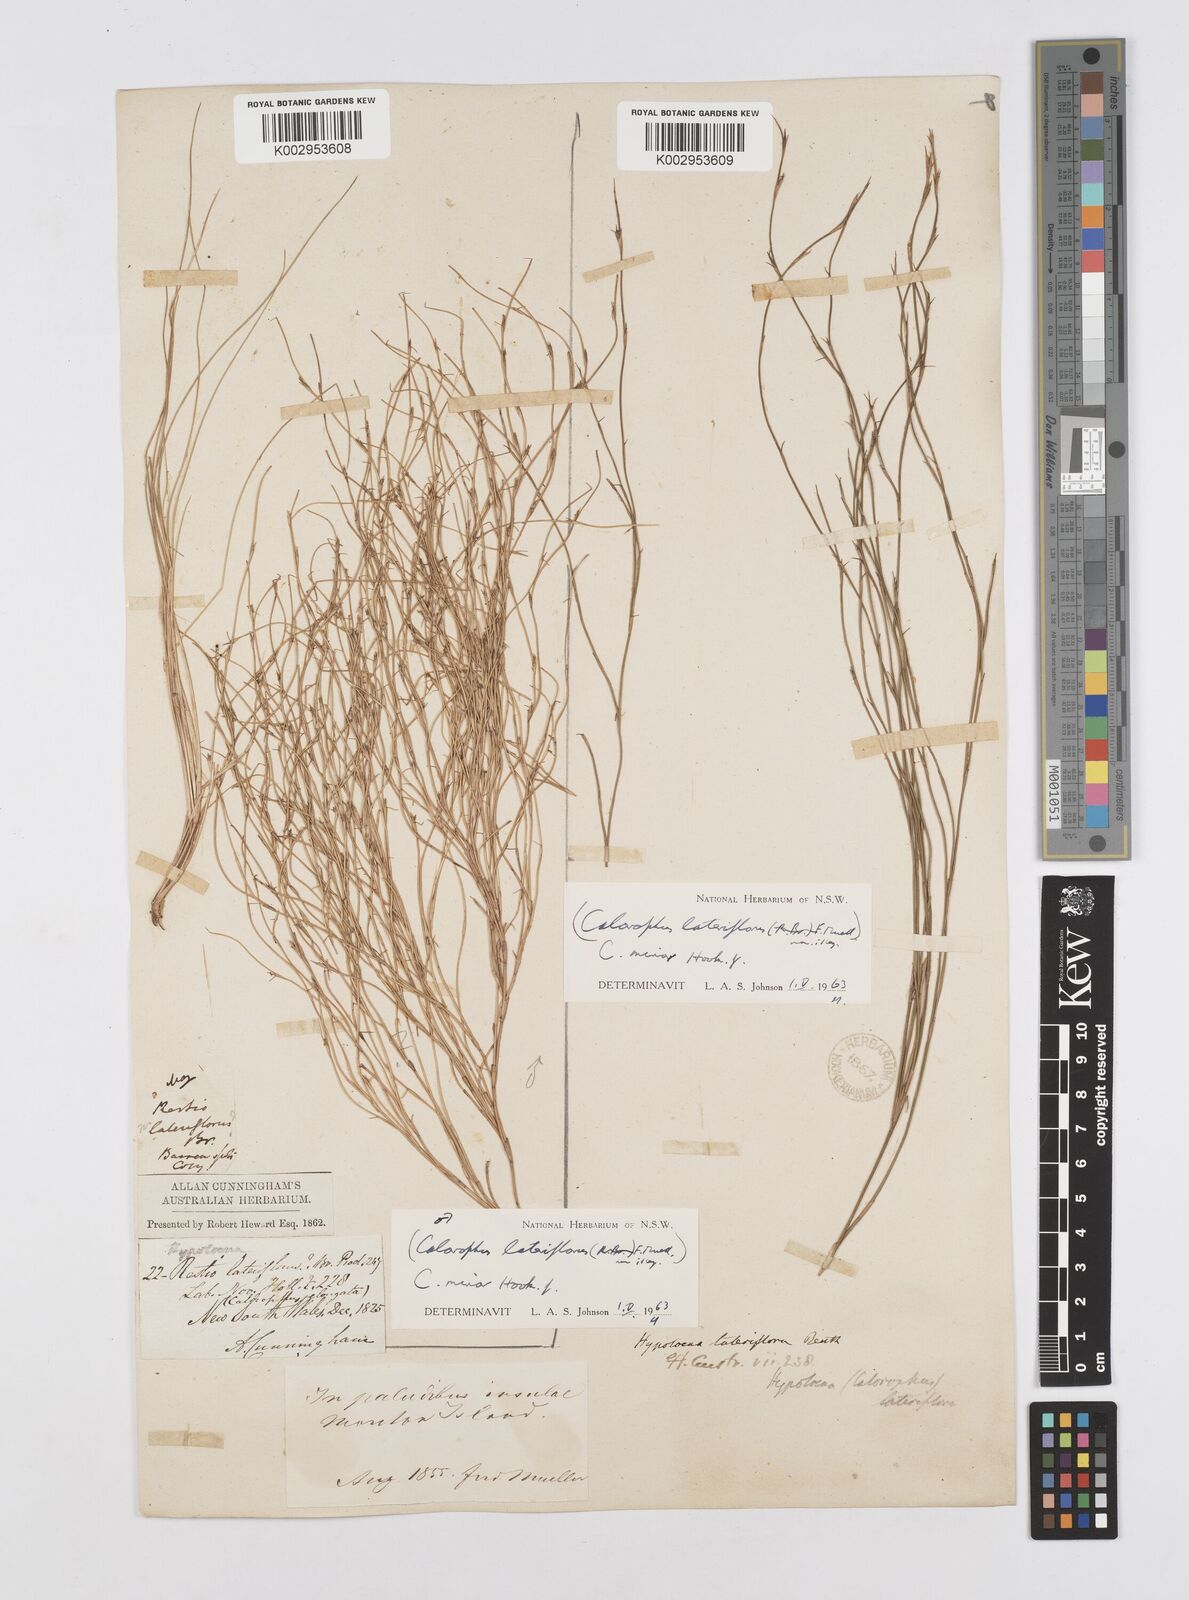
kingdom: Plantae
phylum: Tracheophyta
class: Liliopsida
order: Poales
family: Restionaceae
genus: Empodisma
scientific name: Empodisma minus
